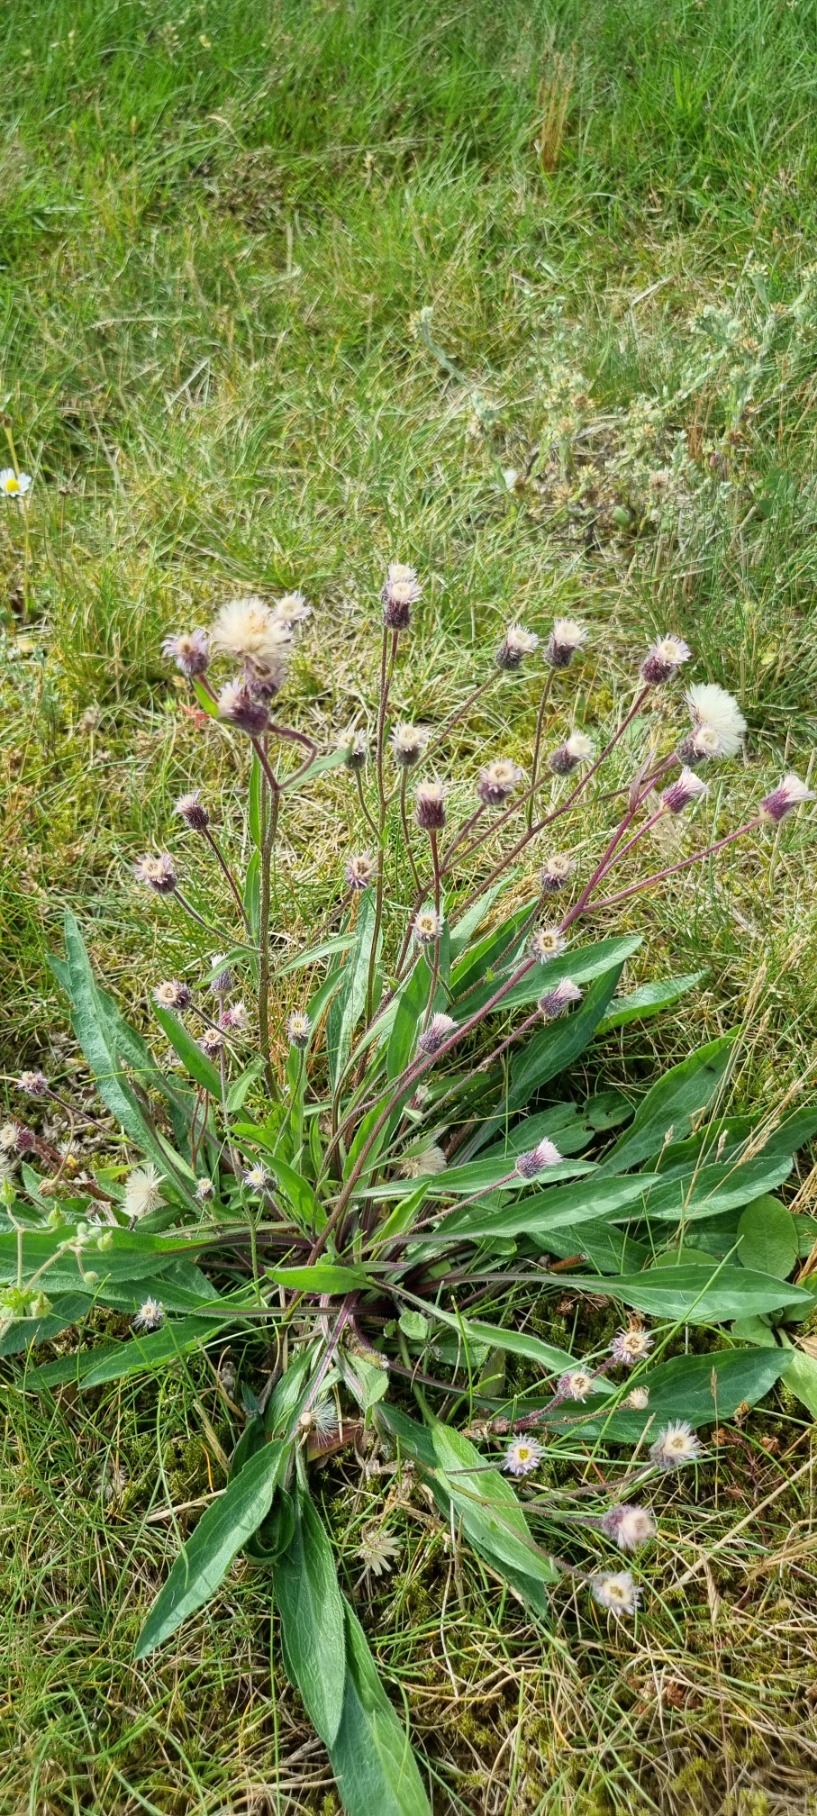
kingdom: Plantae
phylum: Tracheophyta
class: Magnoliopsida
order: Asterales
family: Asteraceae
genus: Erigeron
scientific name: Erigeron acris
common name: Bitter bakkestjerne
